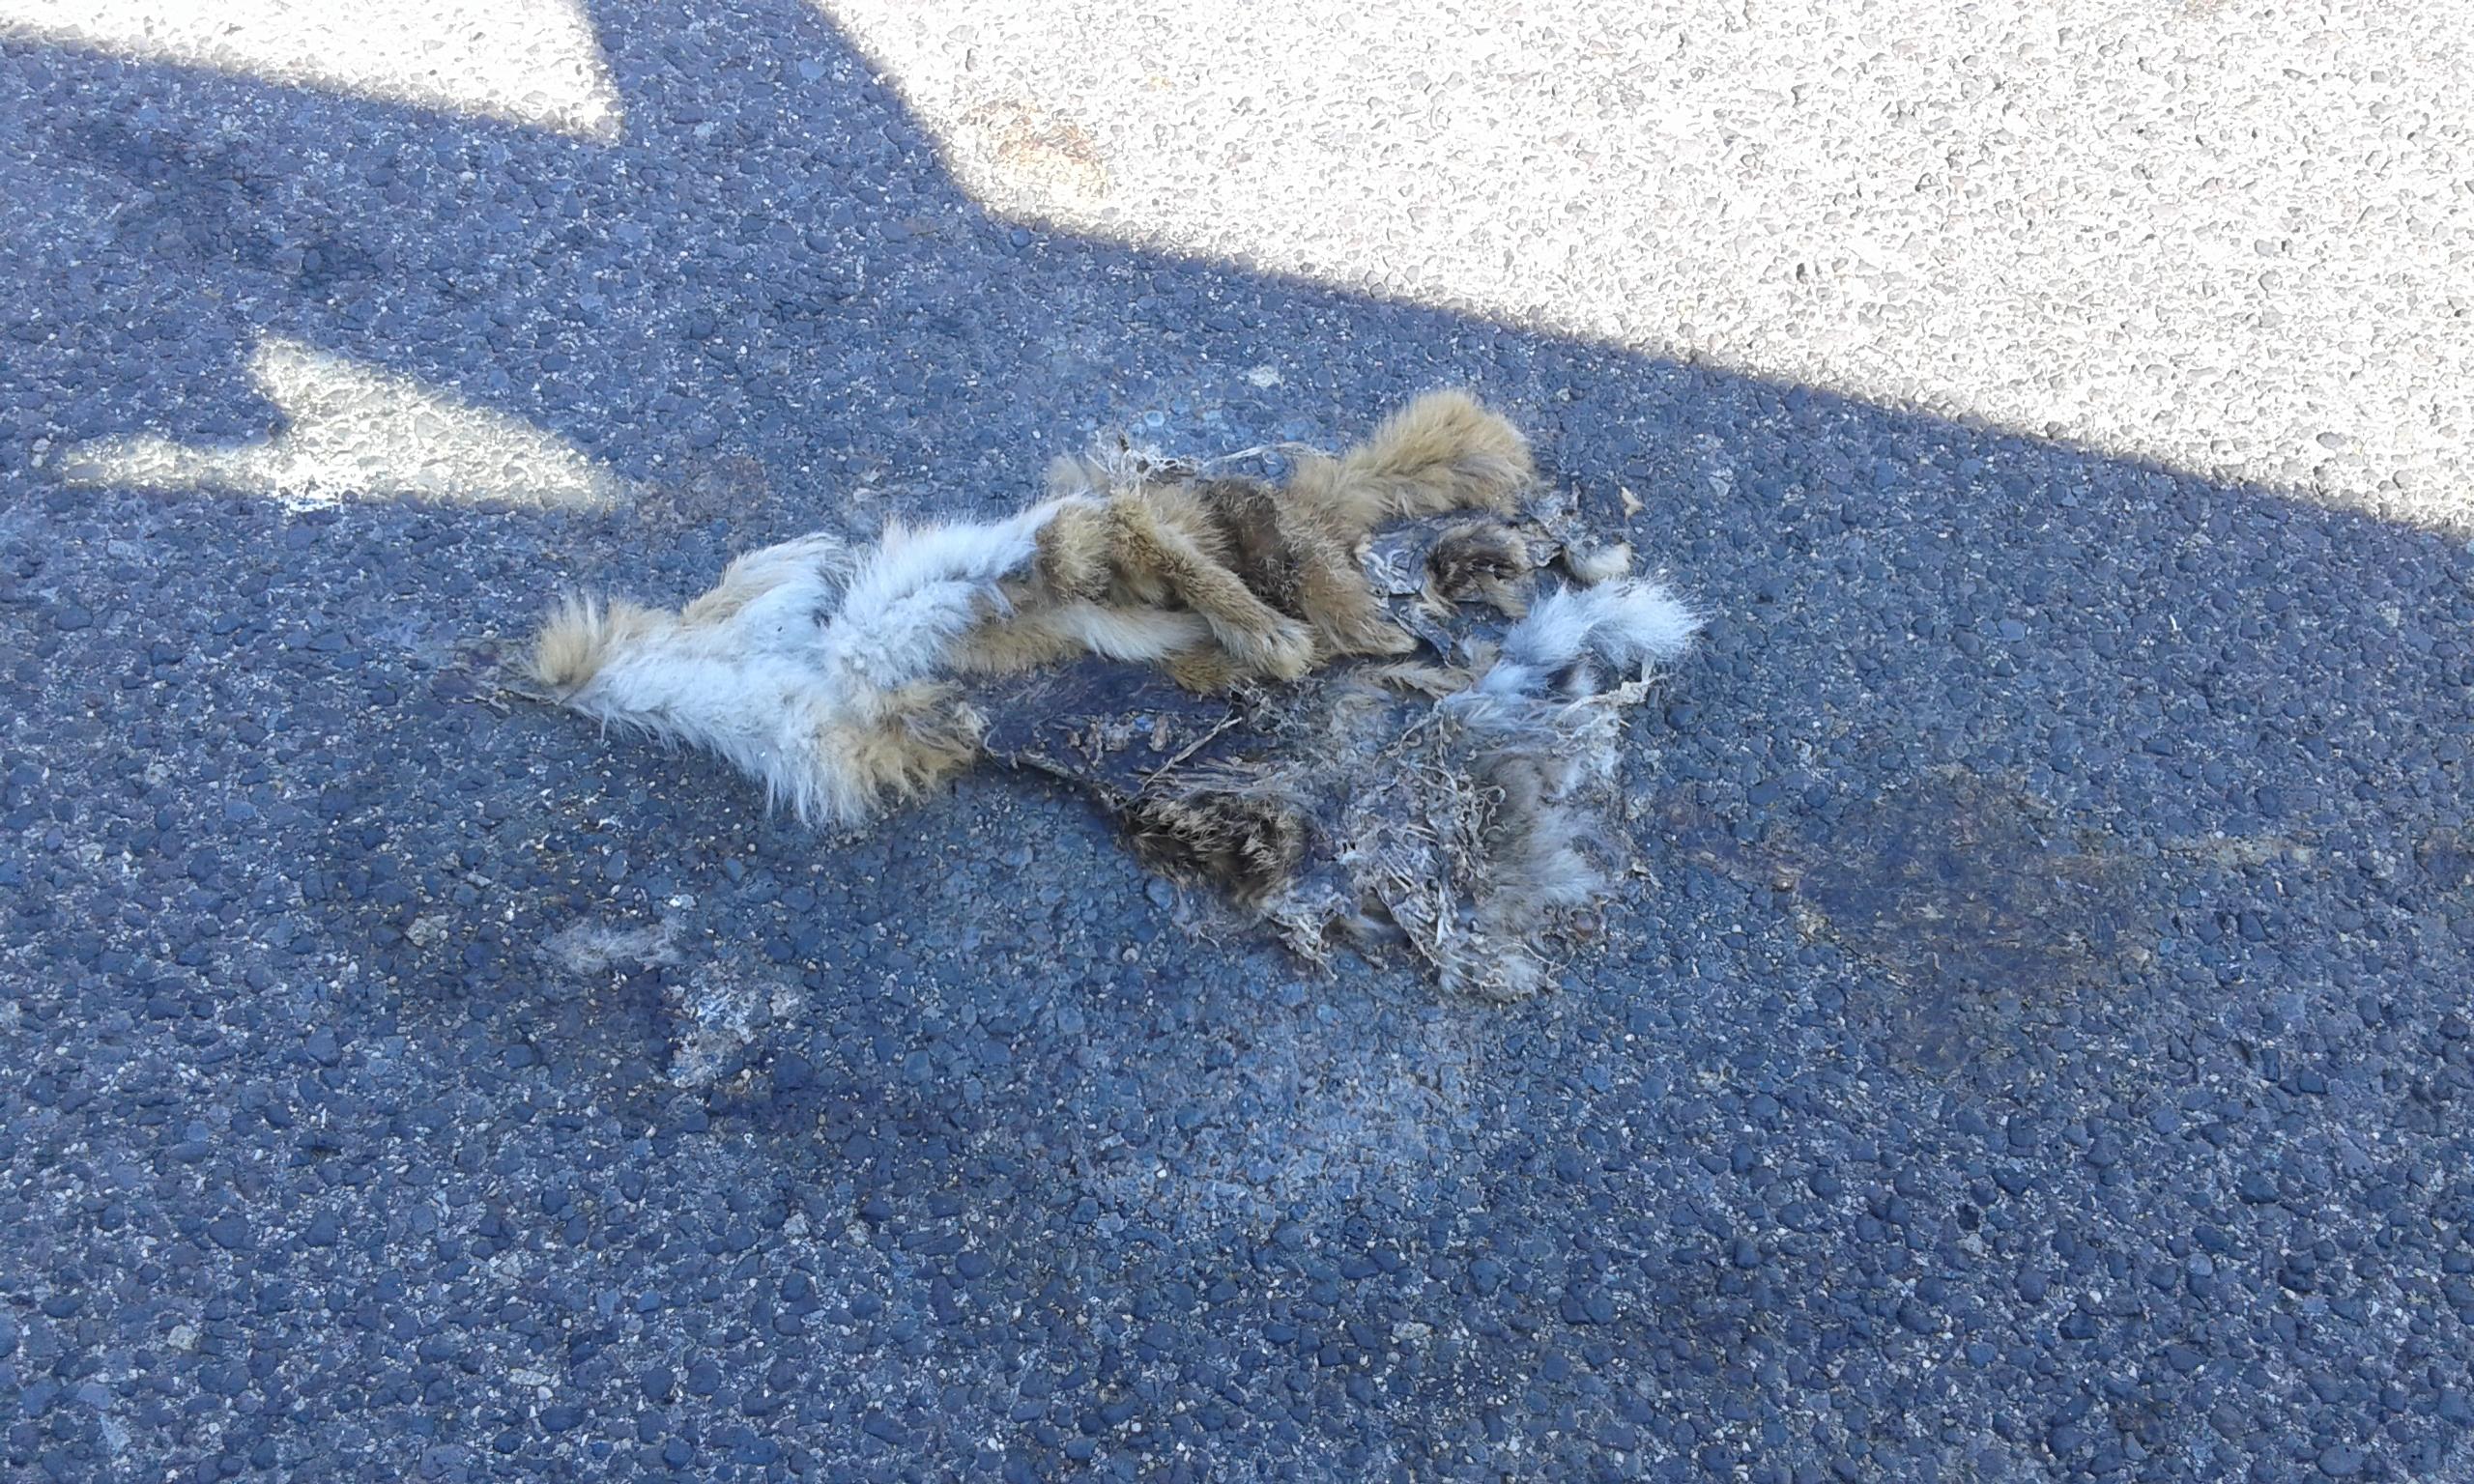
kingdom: Animalia
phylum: Chordata
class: Mammalia
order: Lagomorpha
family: Leporidae
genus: Lepus
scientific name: Lepus europaeus
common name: European hare
